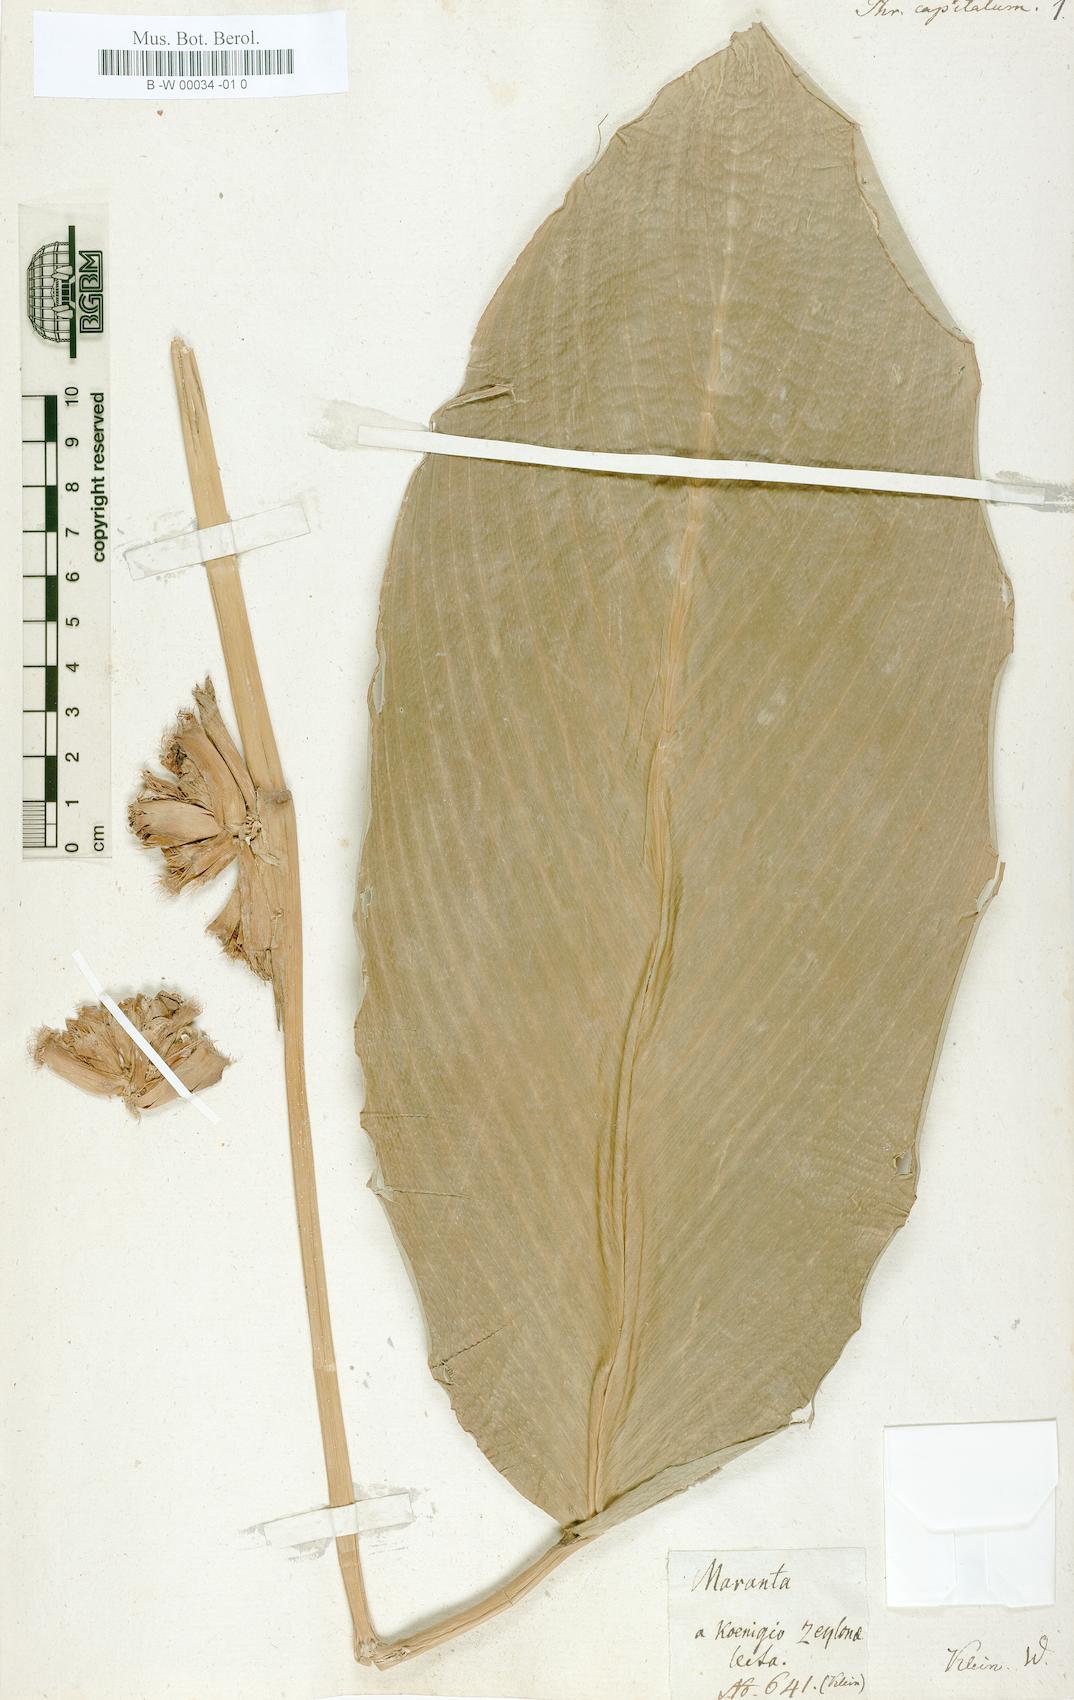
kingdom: Plantae
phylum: Tracheophyta
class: Liliopsida
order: Zingiberales
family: Marantaceae
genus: Phrynium
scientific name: Phrynium pubinerve
